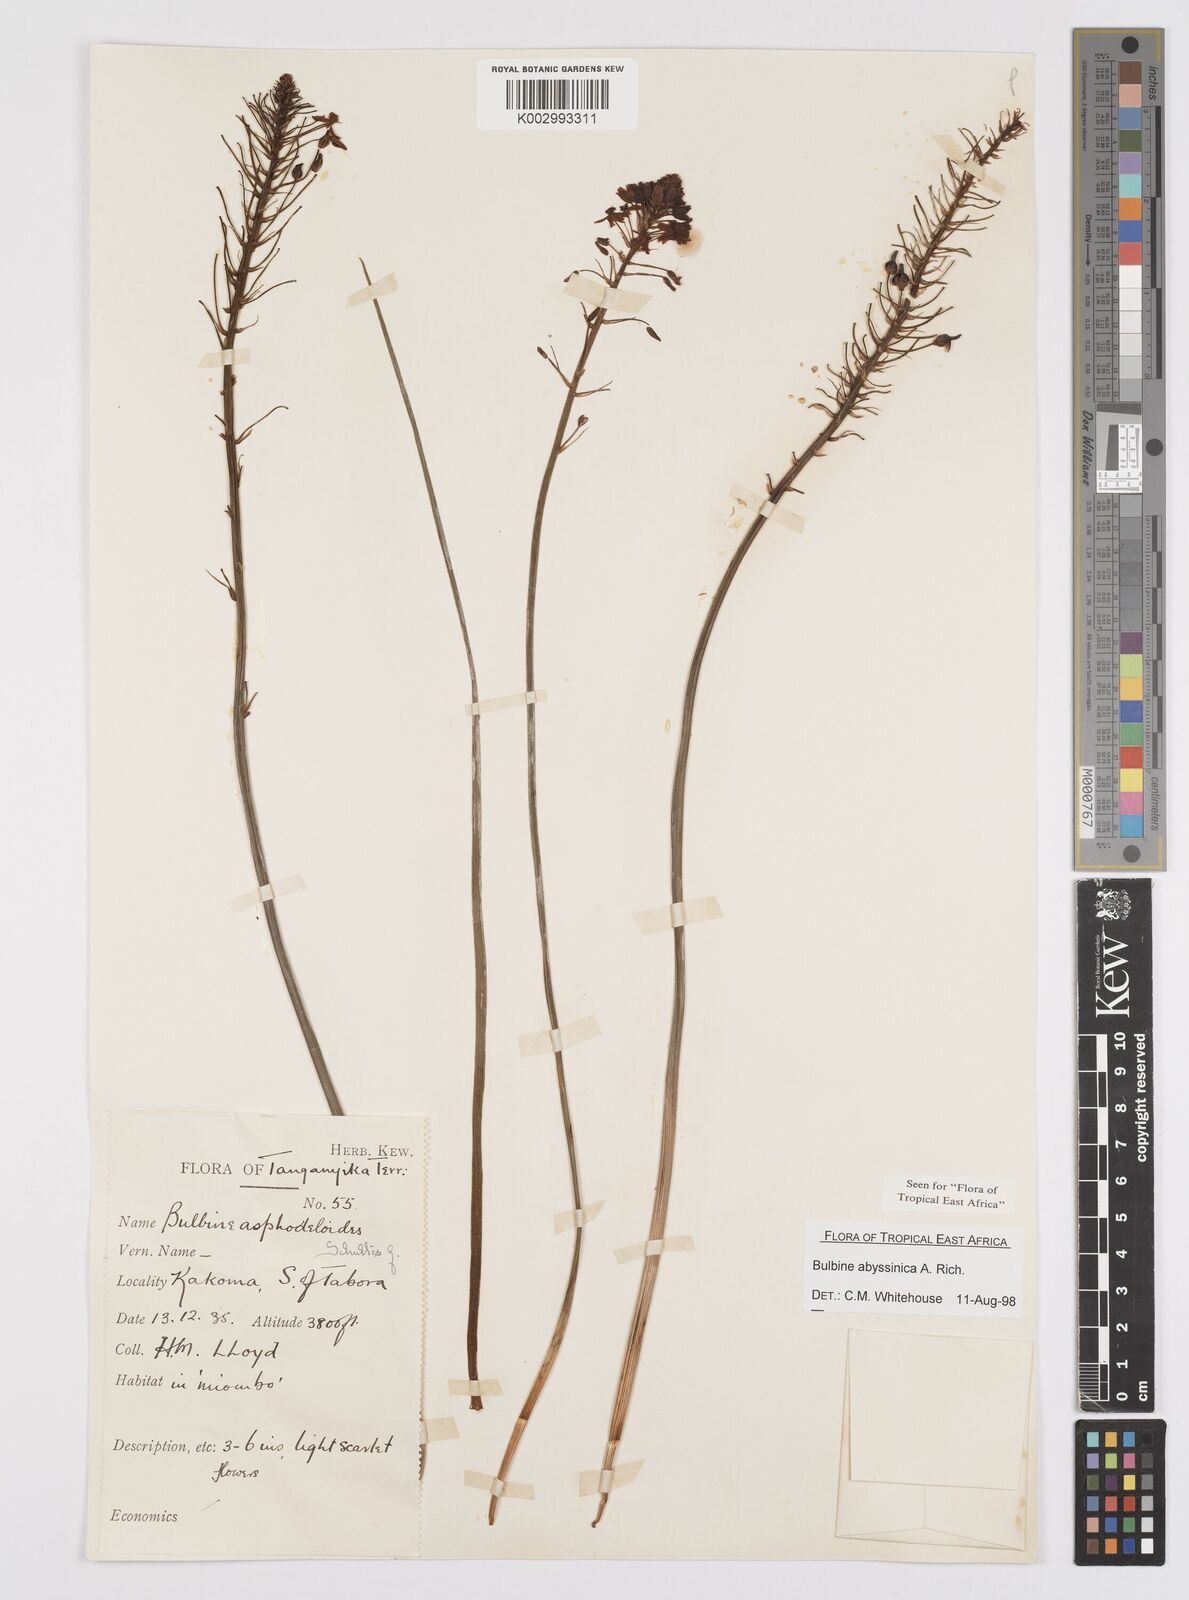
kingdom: Plantae
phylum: Tracheophyta
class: Liliopsida
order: Asparagales
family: Asphodelaceae
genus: Bulbine
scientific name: Bulbine abyssinica
